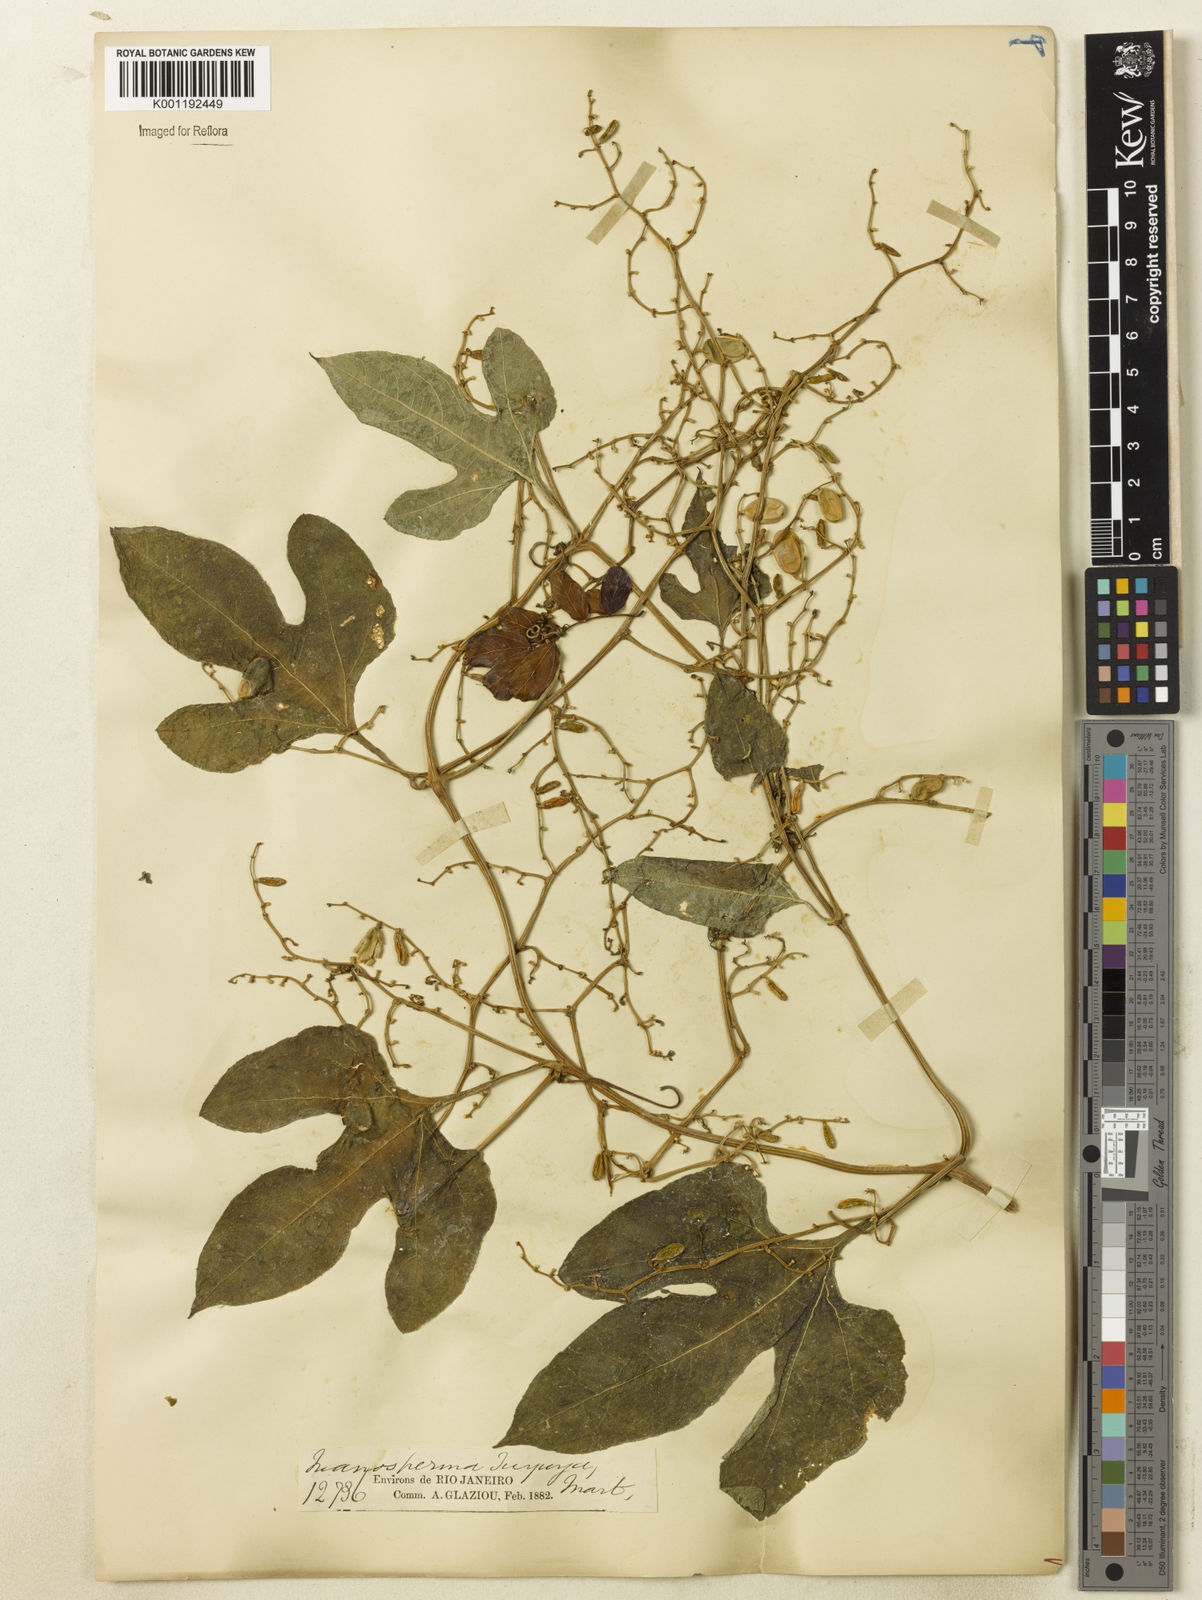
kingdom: Plantae
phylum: Tracheophyta
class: Magnoliopsida
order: Cucurbitales
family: Cucurbitaceae
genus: Cayaponia
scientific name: Cayaponia tayuya
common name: Tayuya
